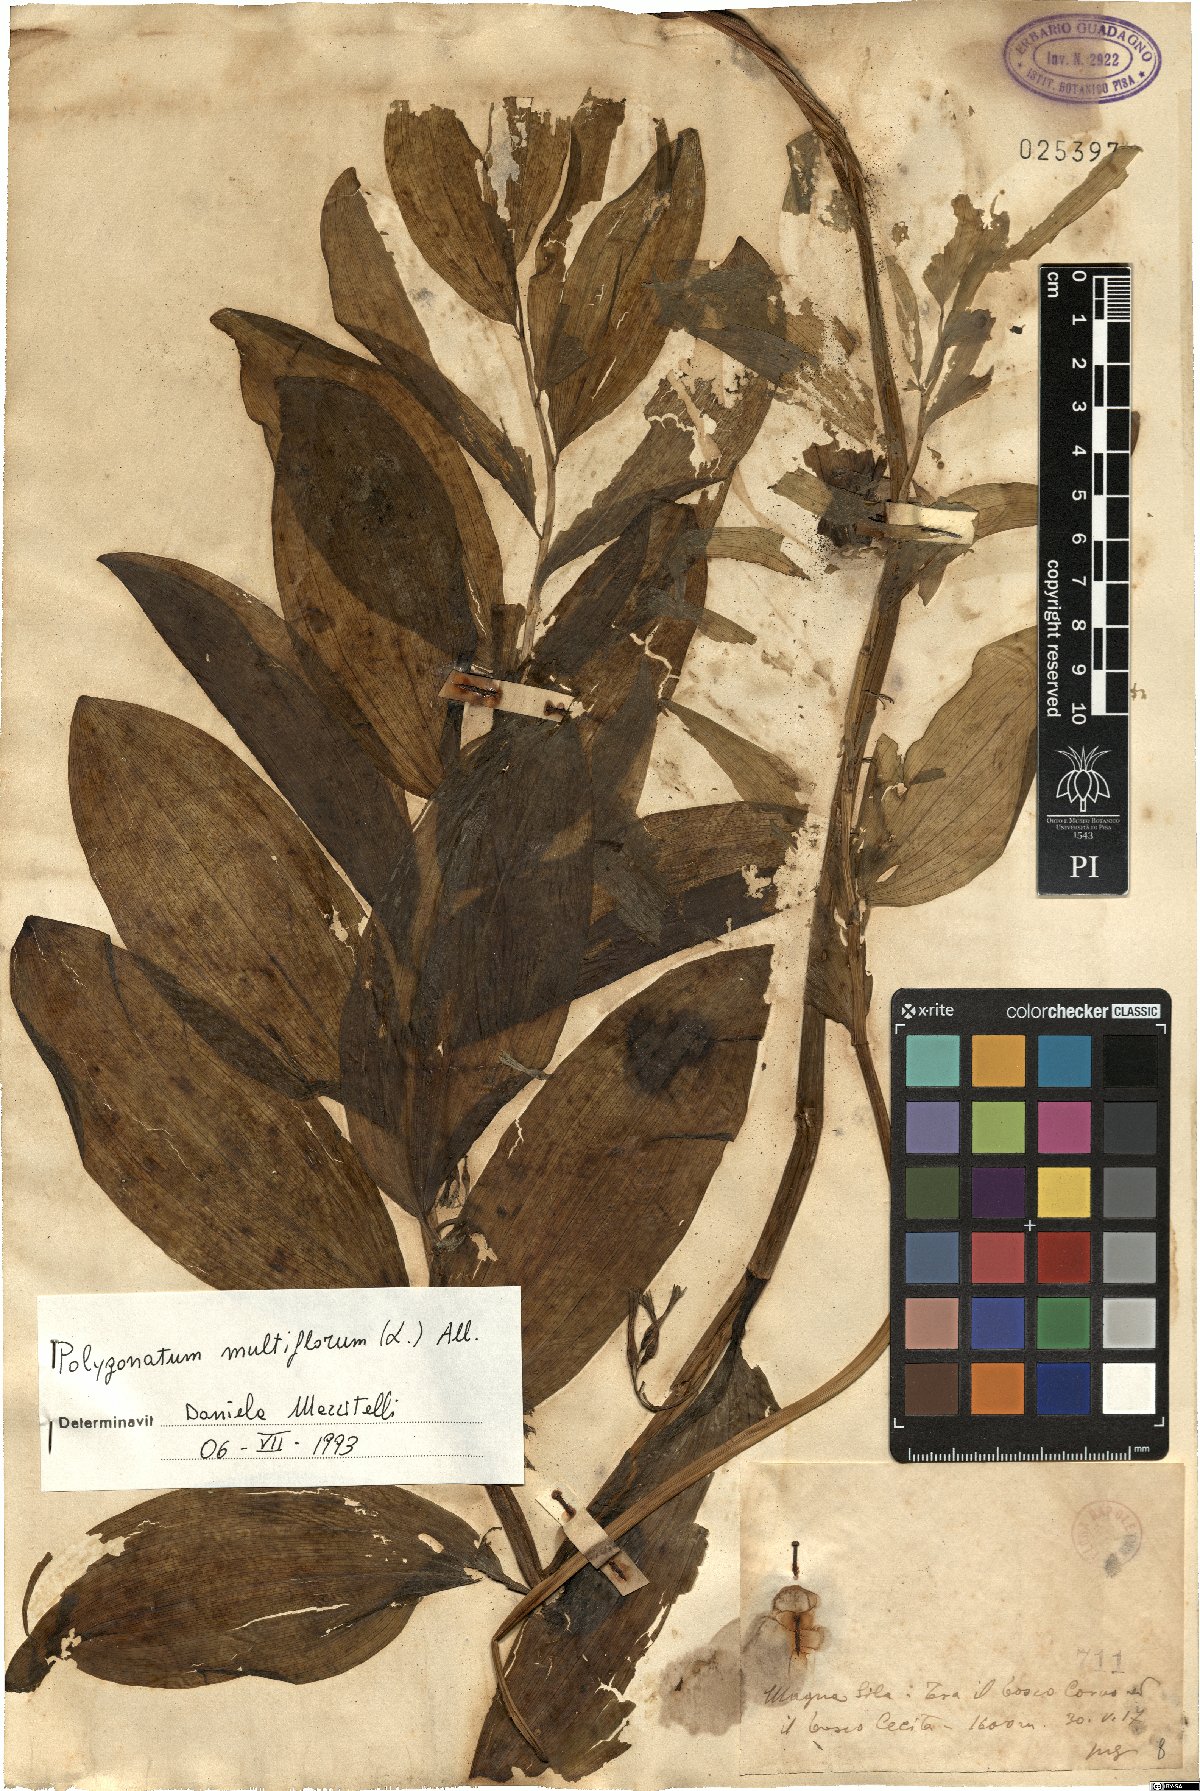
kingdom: Plantae
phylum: Tracheophyta
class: Liliopsida
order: Asparagales
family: Asparagaceae
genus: Polygonatum
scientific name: Polygonatum multiflorum
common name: Solomon's-seal
